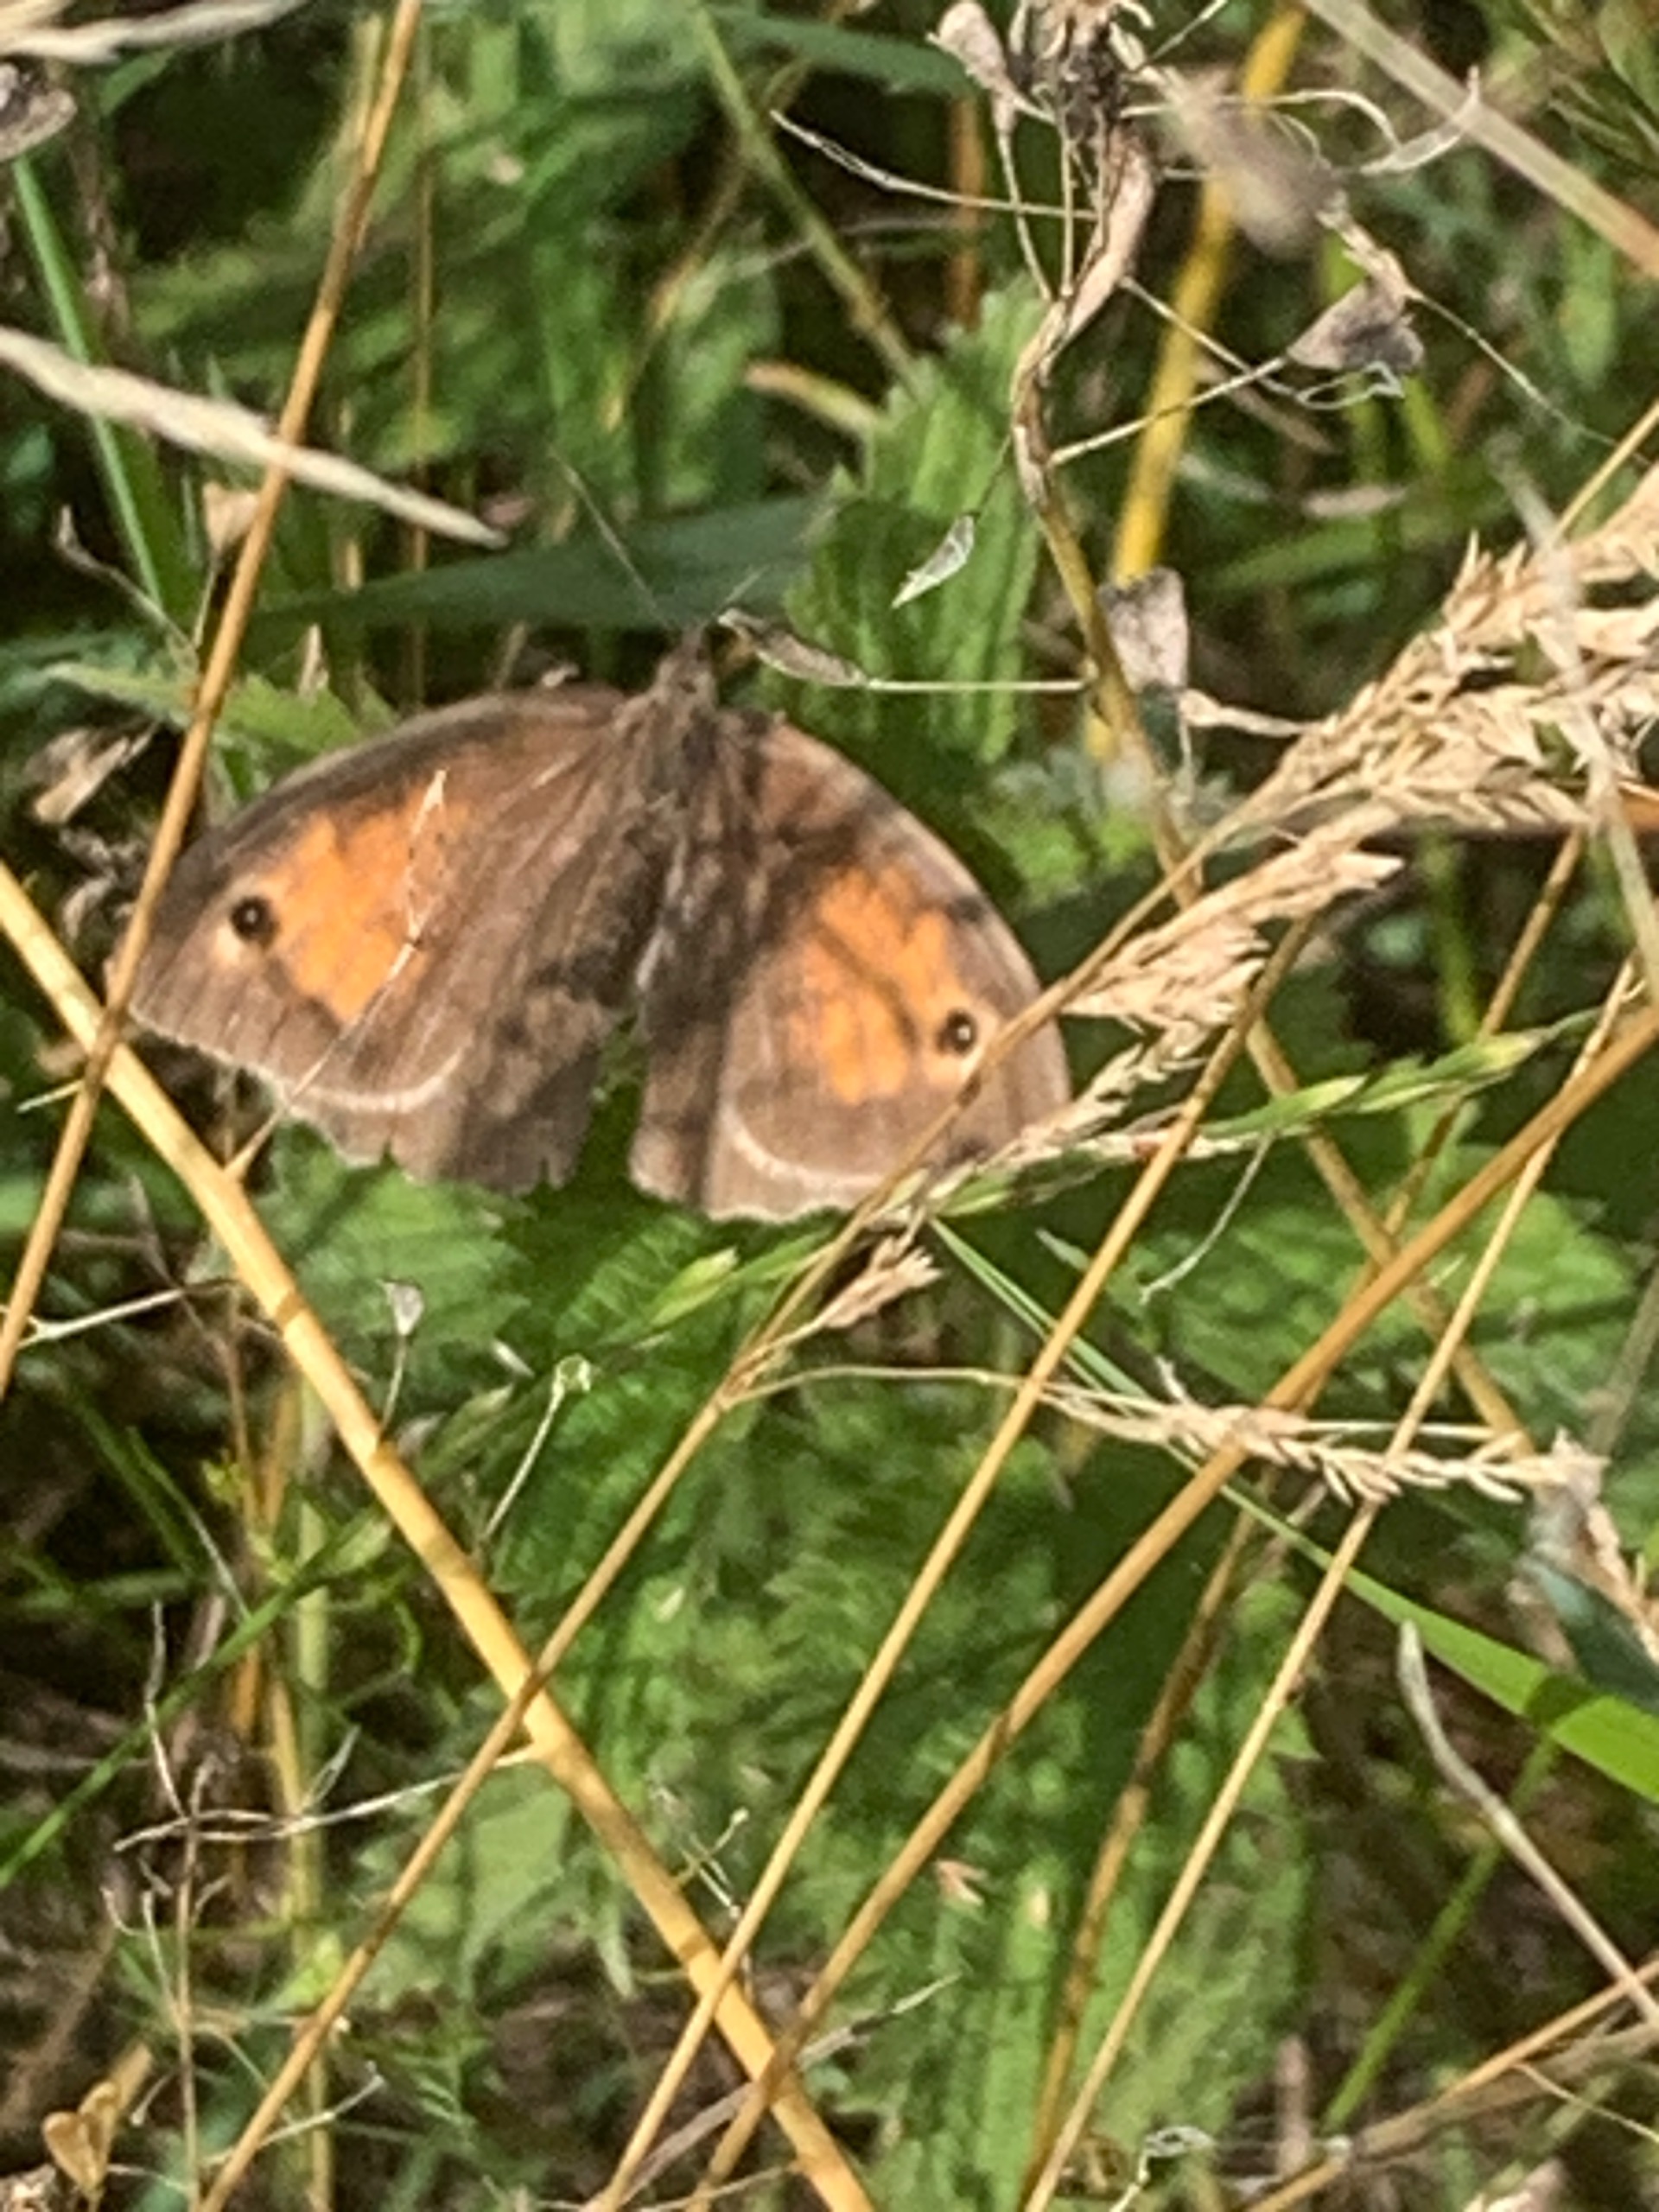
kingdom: Animalia
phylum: Arthropoda
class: Insecta
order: Lepidoptera
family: Nymphalidae
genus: Maniola
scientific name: Maniola jurtina
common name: Græsrandøje
